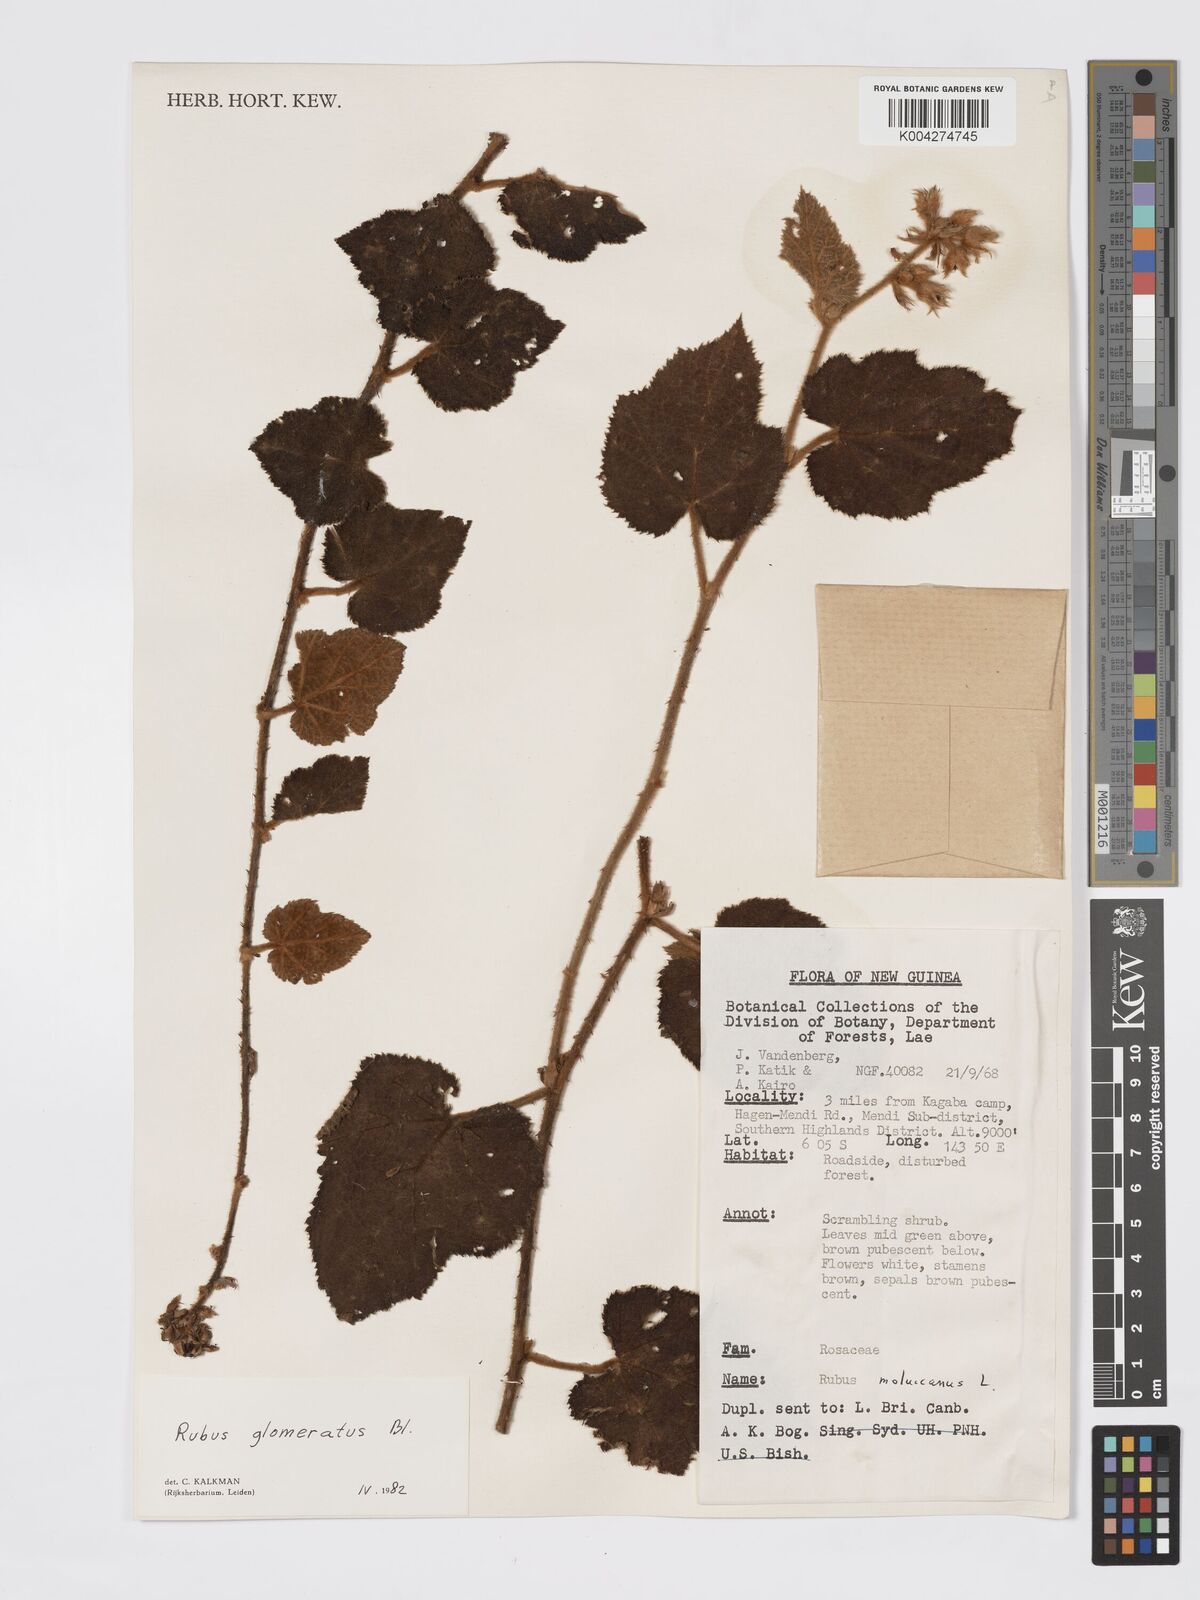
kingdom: Plantae
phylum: Tracheophyta
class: Magnoliopsida
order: Rosales
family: Rosaceae
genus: Rubus
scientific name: Rubus
